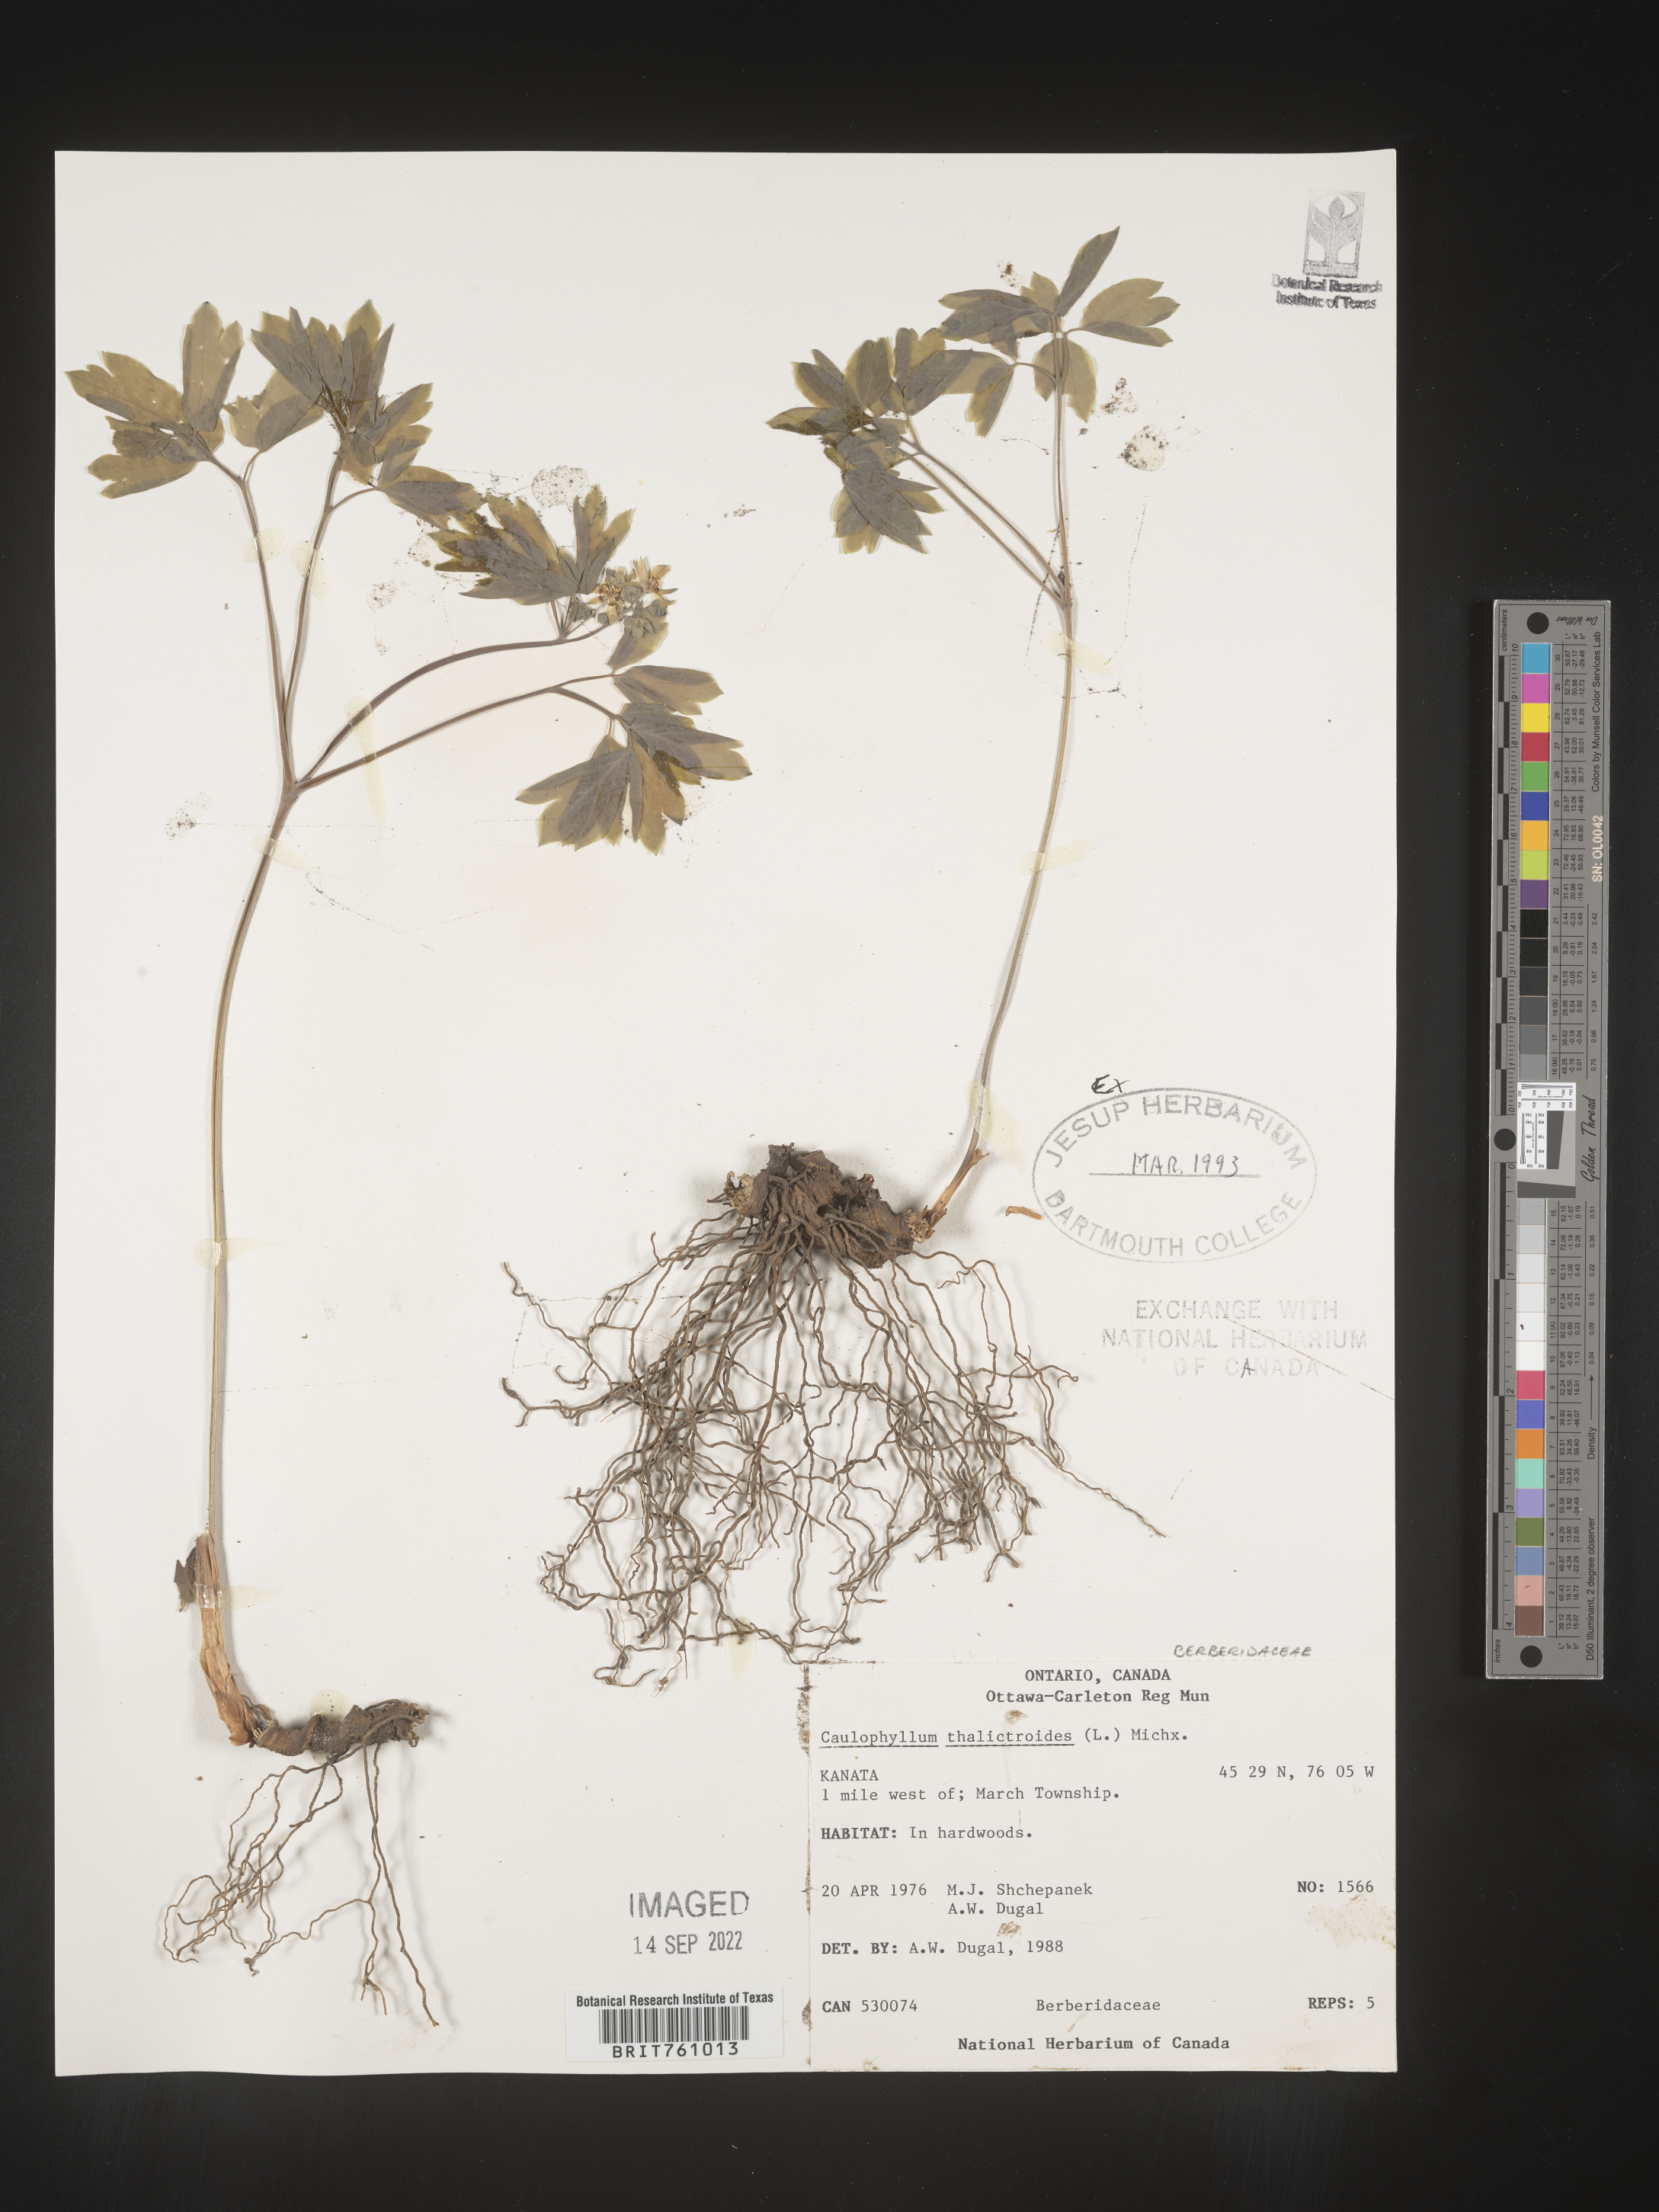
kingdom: Plantae
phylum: Tracheophyta
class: Magnoliopsida
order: Ranunculales
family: Berberidaceae
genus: Caulophyllum
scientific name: Caulophyllum thalictroides
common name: Blue cohosh
